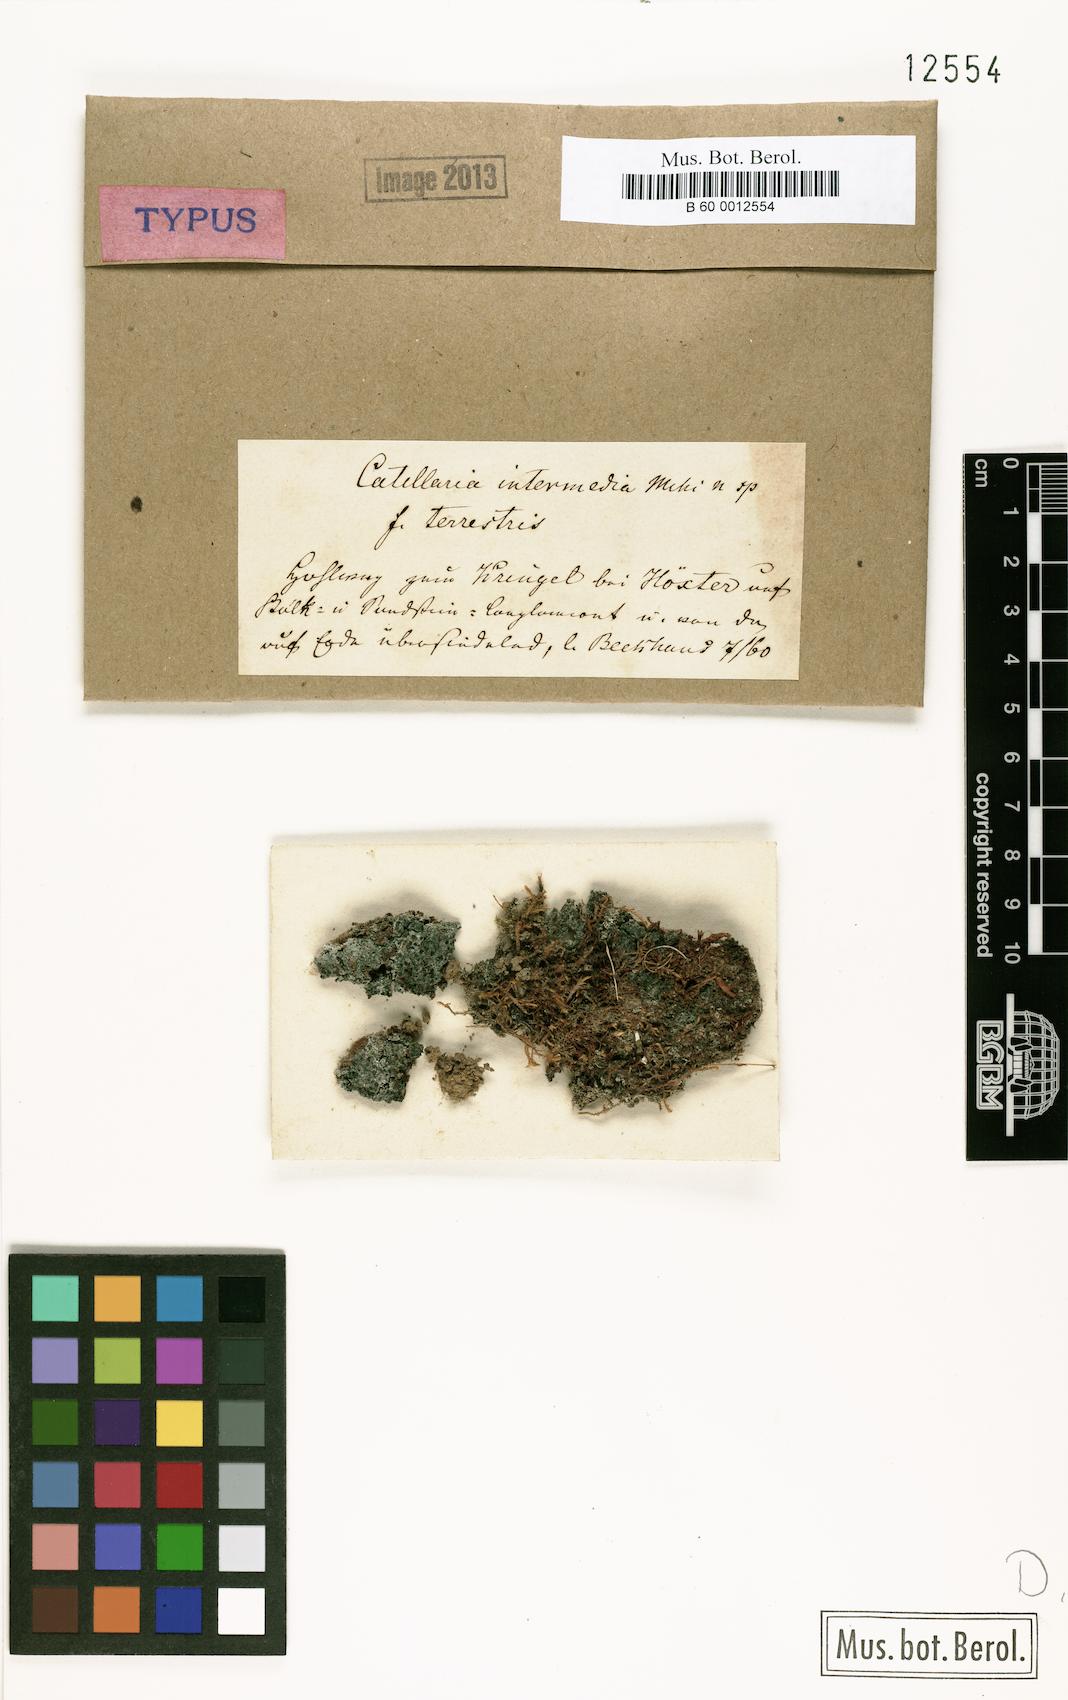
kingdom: Fungi
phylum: Ascomycota
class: Lecanoromycetes
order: Lecanorales
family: Catillariaceae
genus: Catillaria
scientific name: Catillaria intermedia
